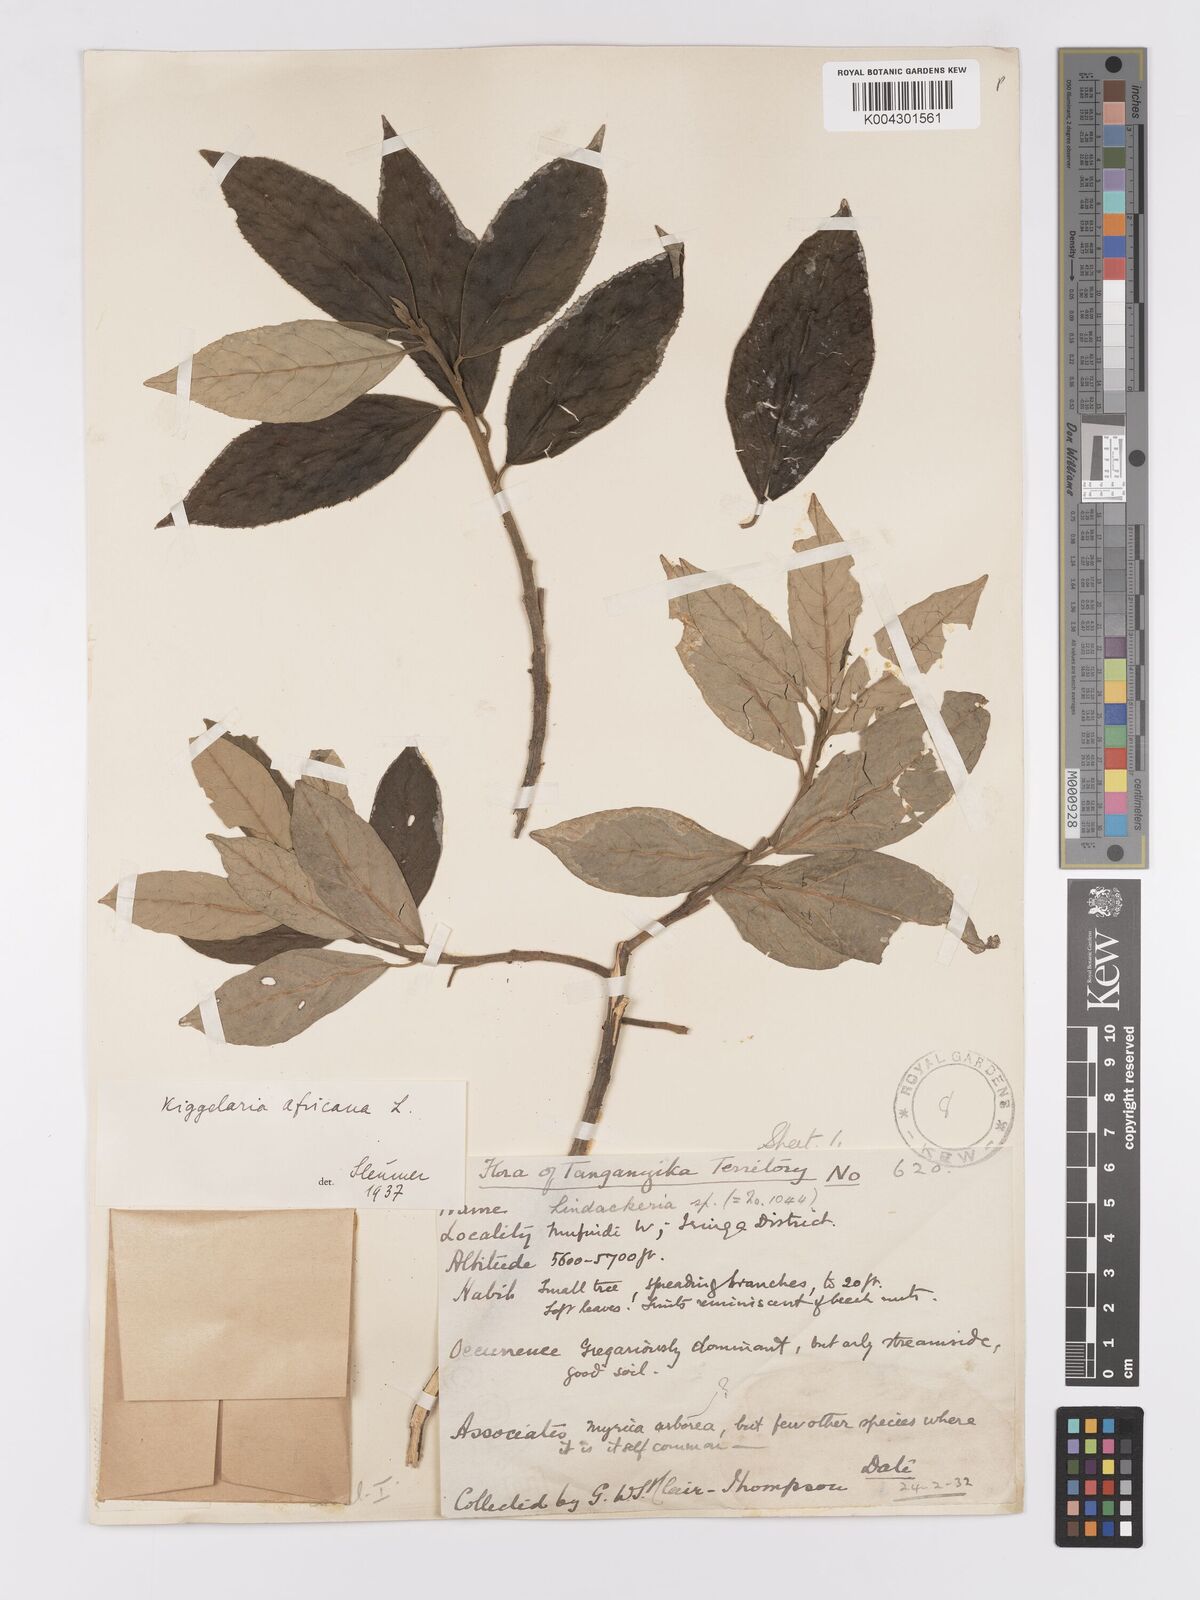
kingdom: Plantae
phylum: Tracheophyta
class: Magnoliopsida
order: Malpighiales
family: Achariaceae
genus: Kiggelaria
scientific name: Kiggelaria africana
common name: Wild peach
